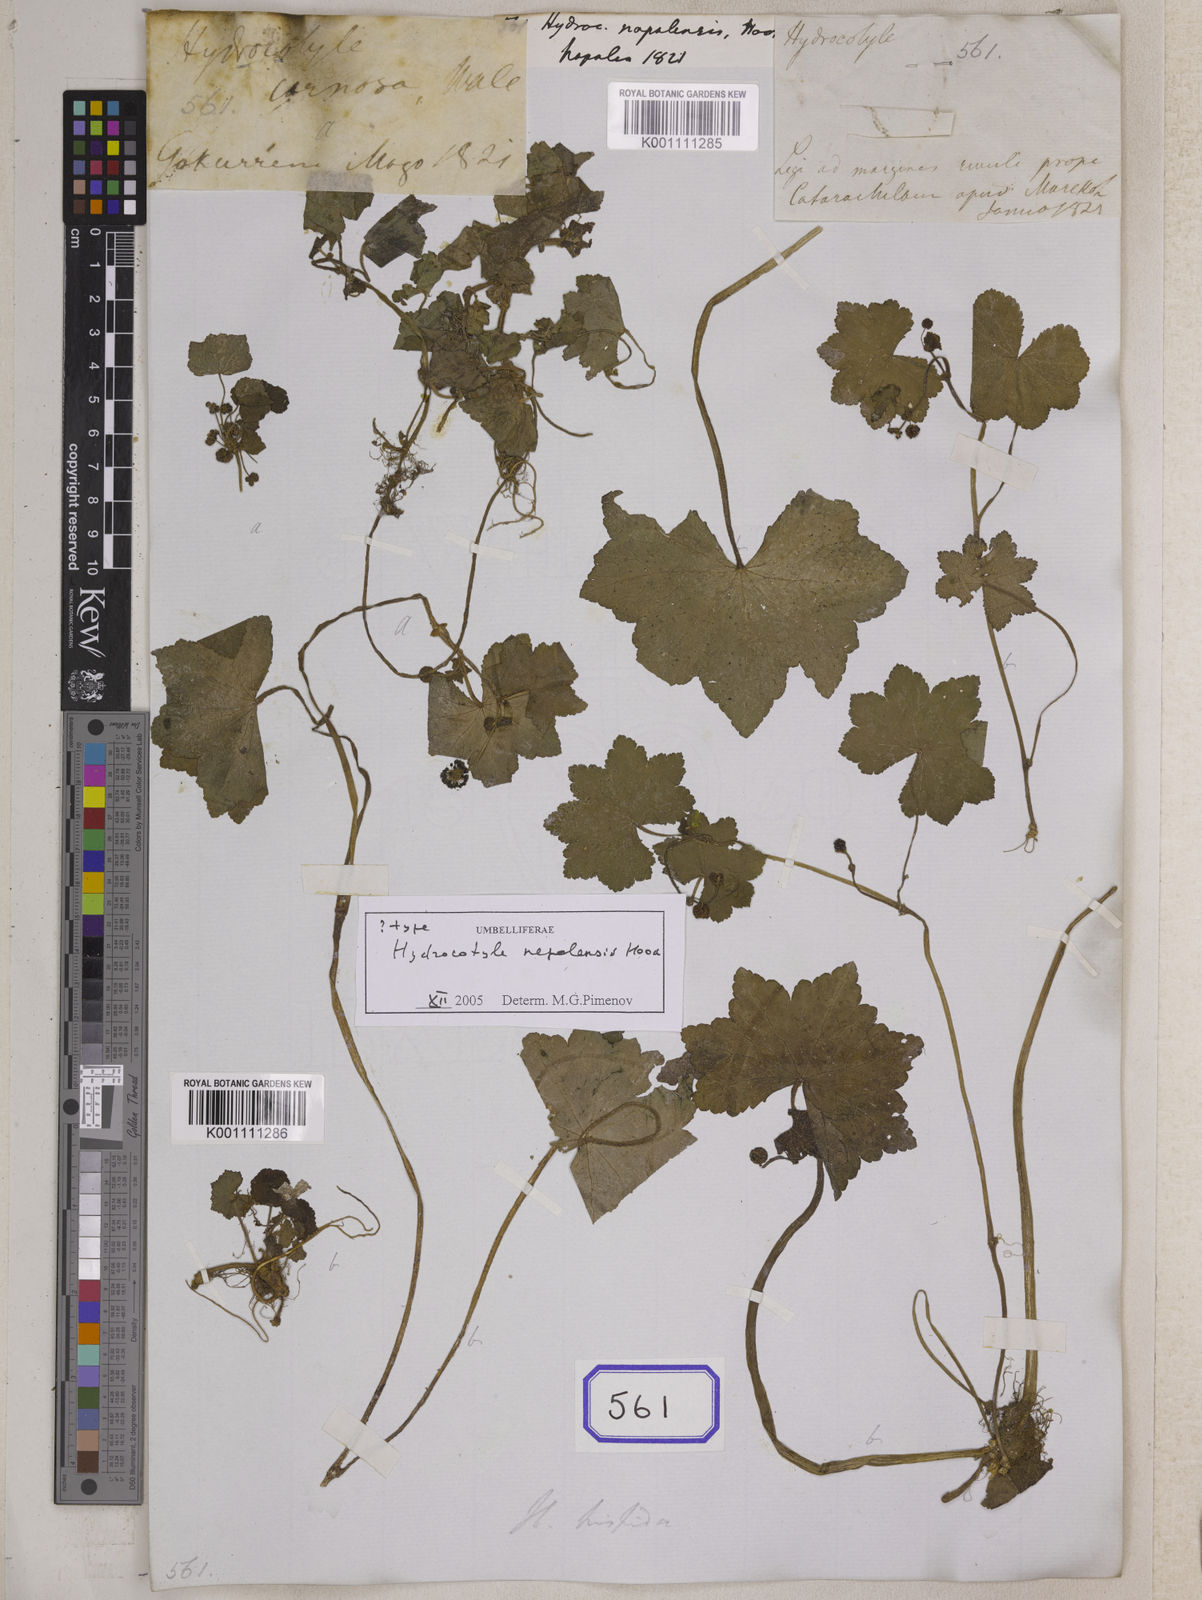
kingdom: Plantae
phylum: Tracheophyta
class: Magnoliopsida
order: Apiales
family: Araliaceae
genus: Hydrocotyle
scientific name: Hydrocotyle nepalensis
